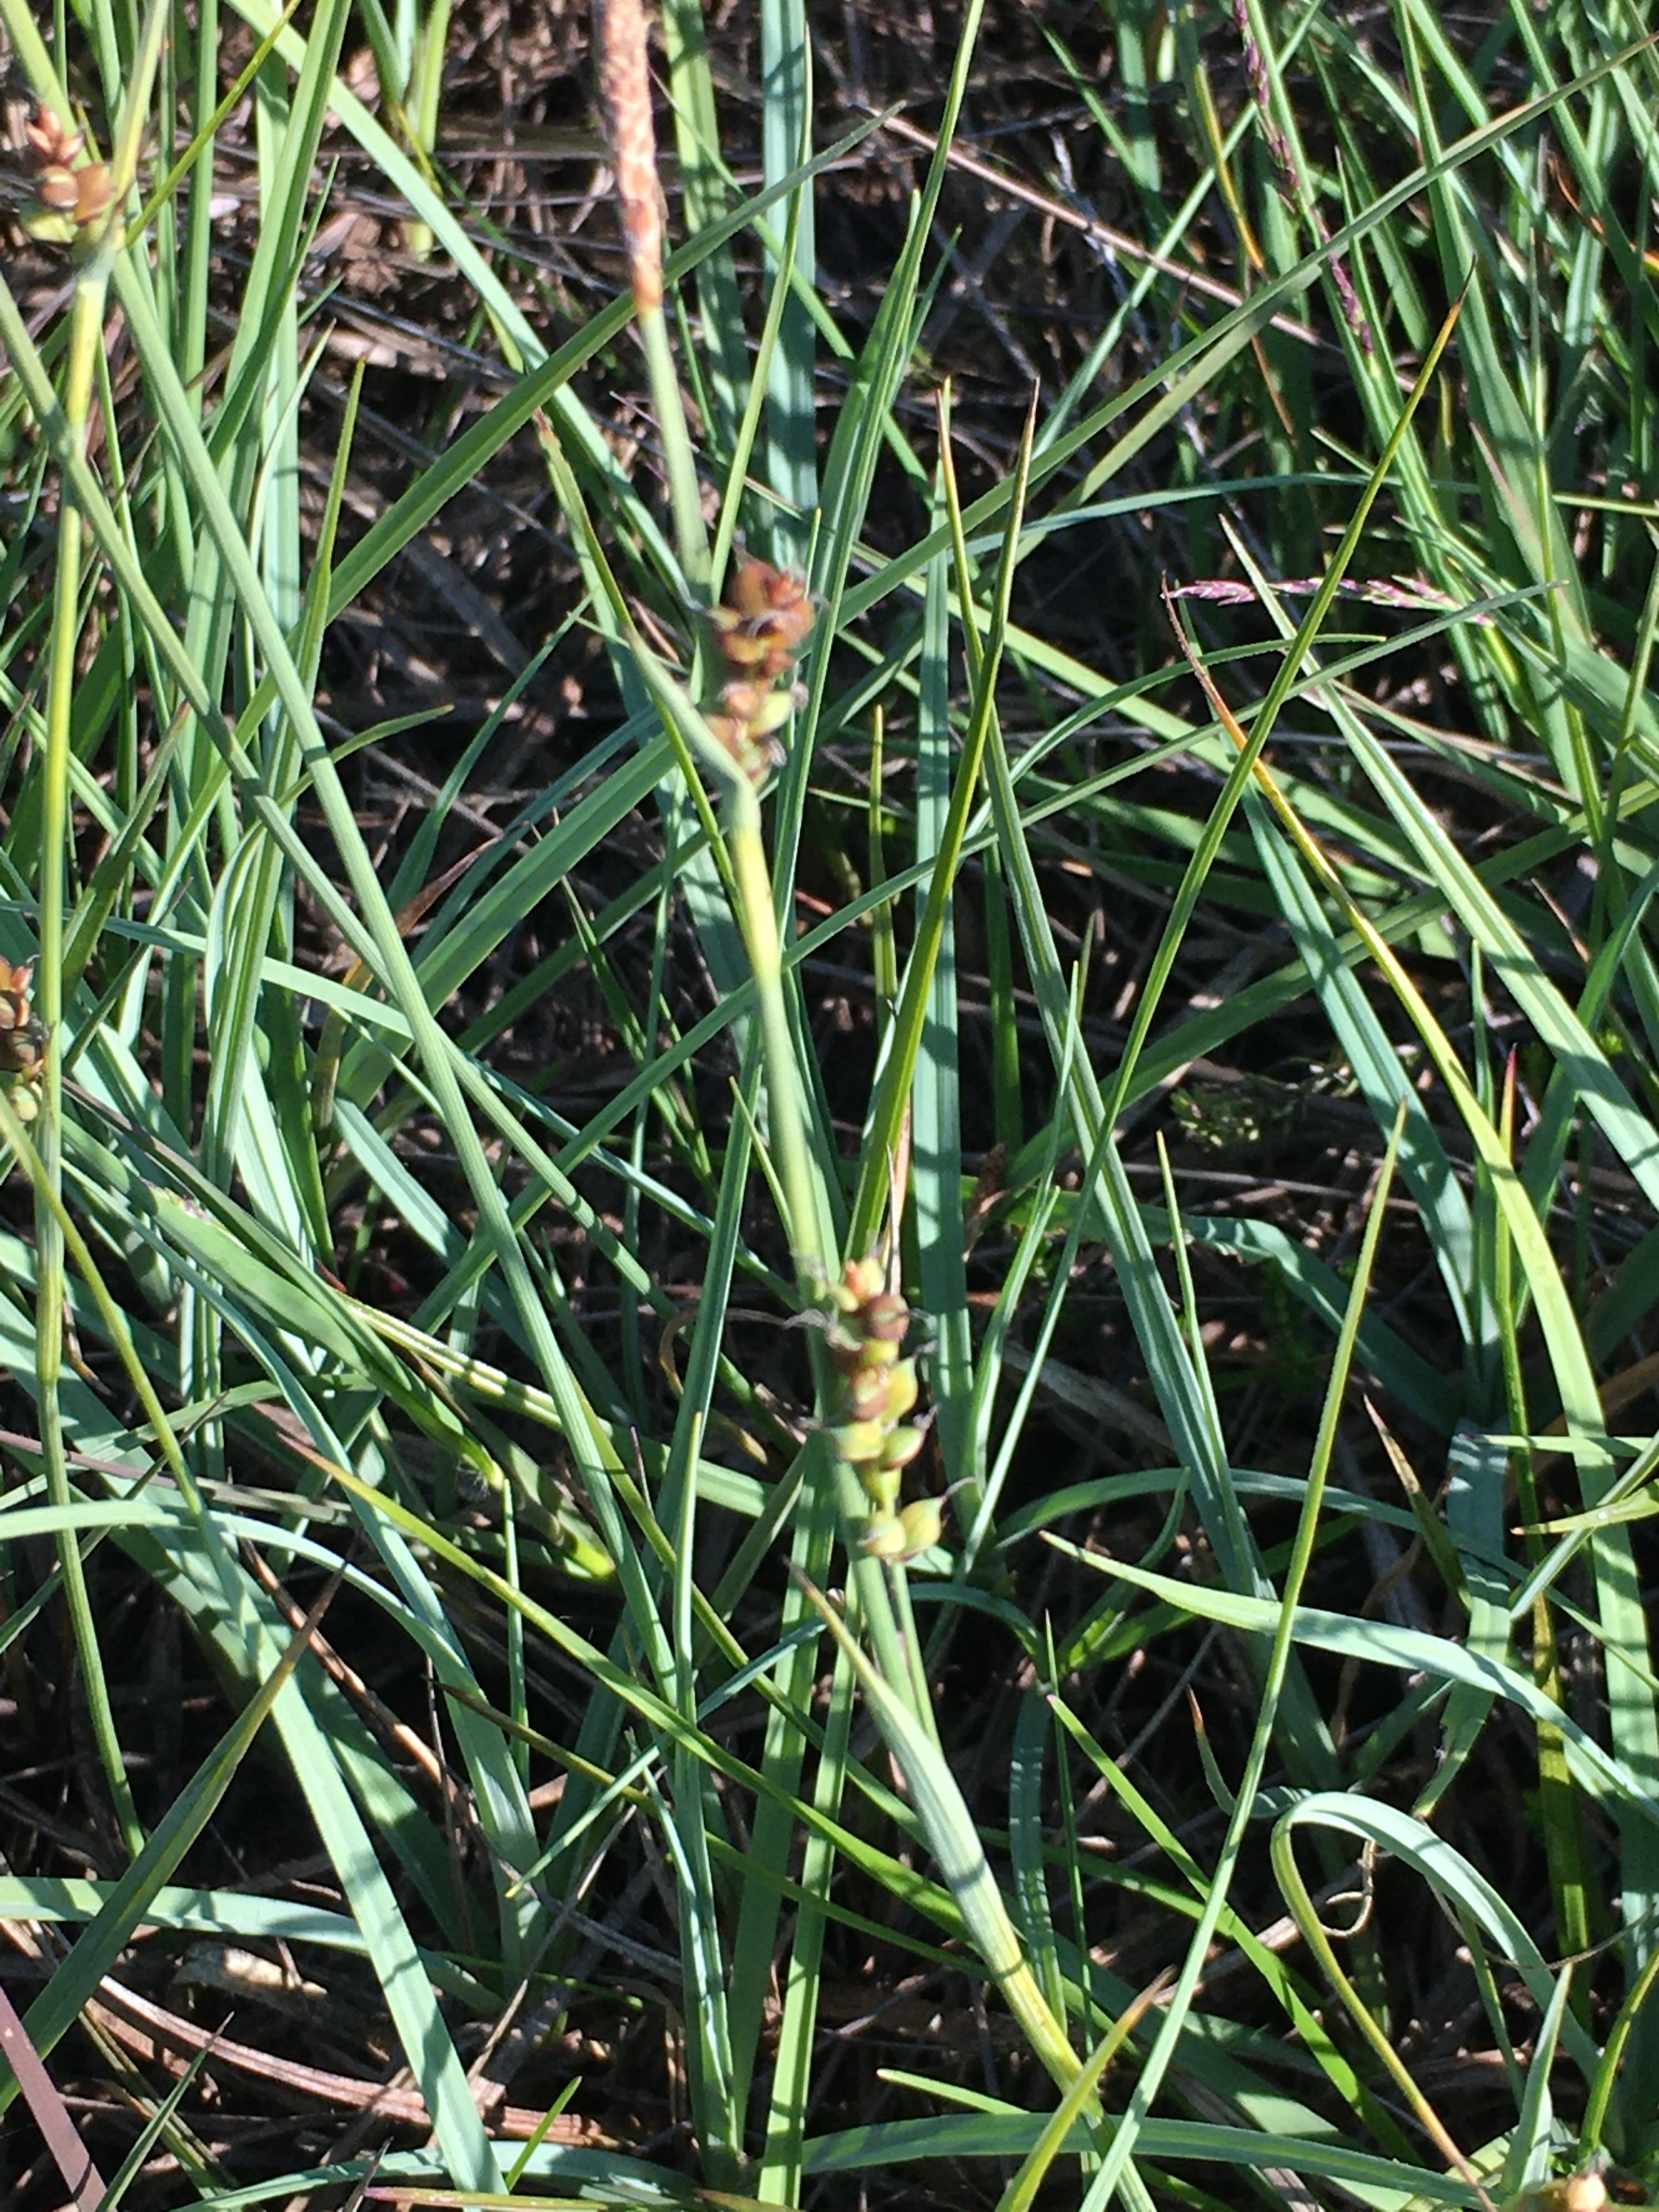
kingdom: Plantae
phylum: Tracheophyta
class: Liliopsida
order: Poales
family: Cyperaceae
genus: Carex
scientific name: Carex panicea
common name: Hirse-star
